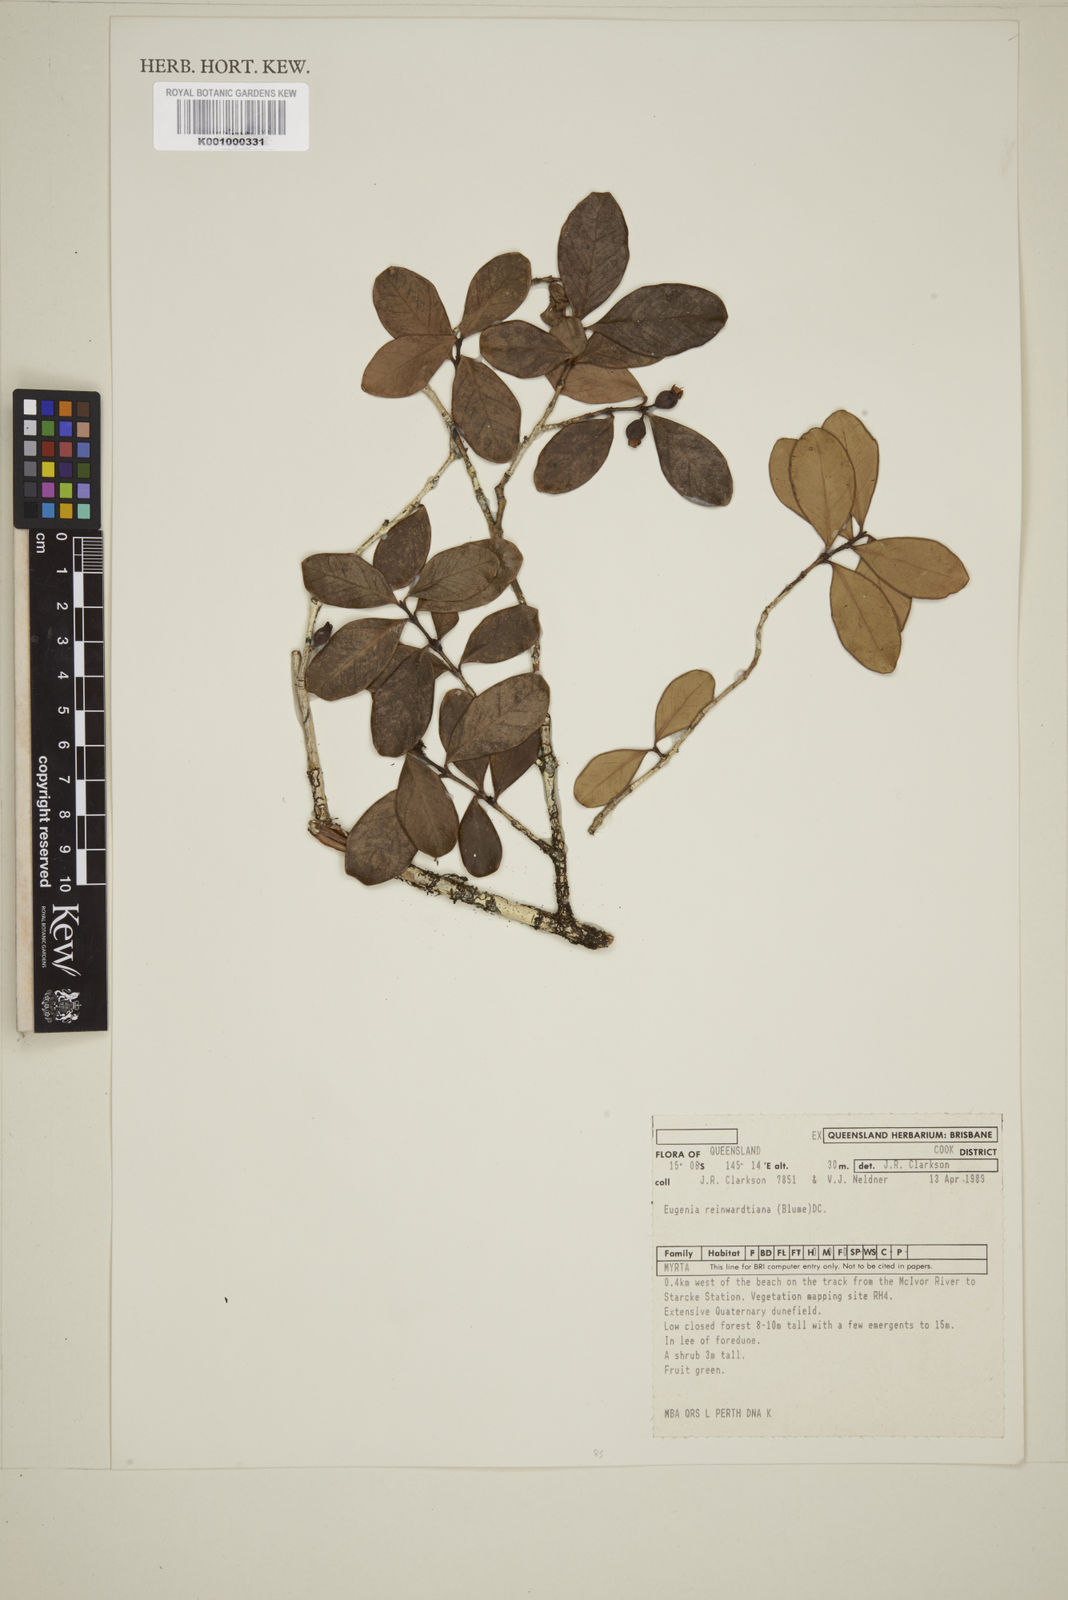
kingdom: Plantae
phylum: Tracheophyta
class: Magnoliopsida
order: Myrtales
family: Myrtaceae
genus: Eugenia
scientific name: Eugenia reinwardtiana
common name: Cedar bay-cherry
